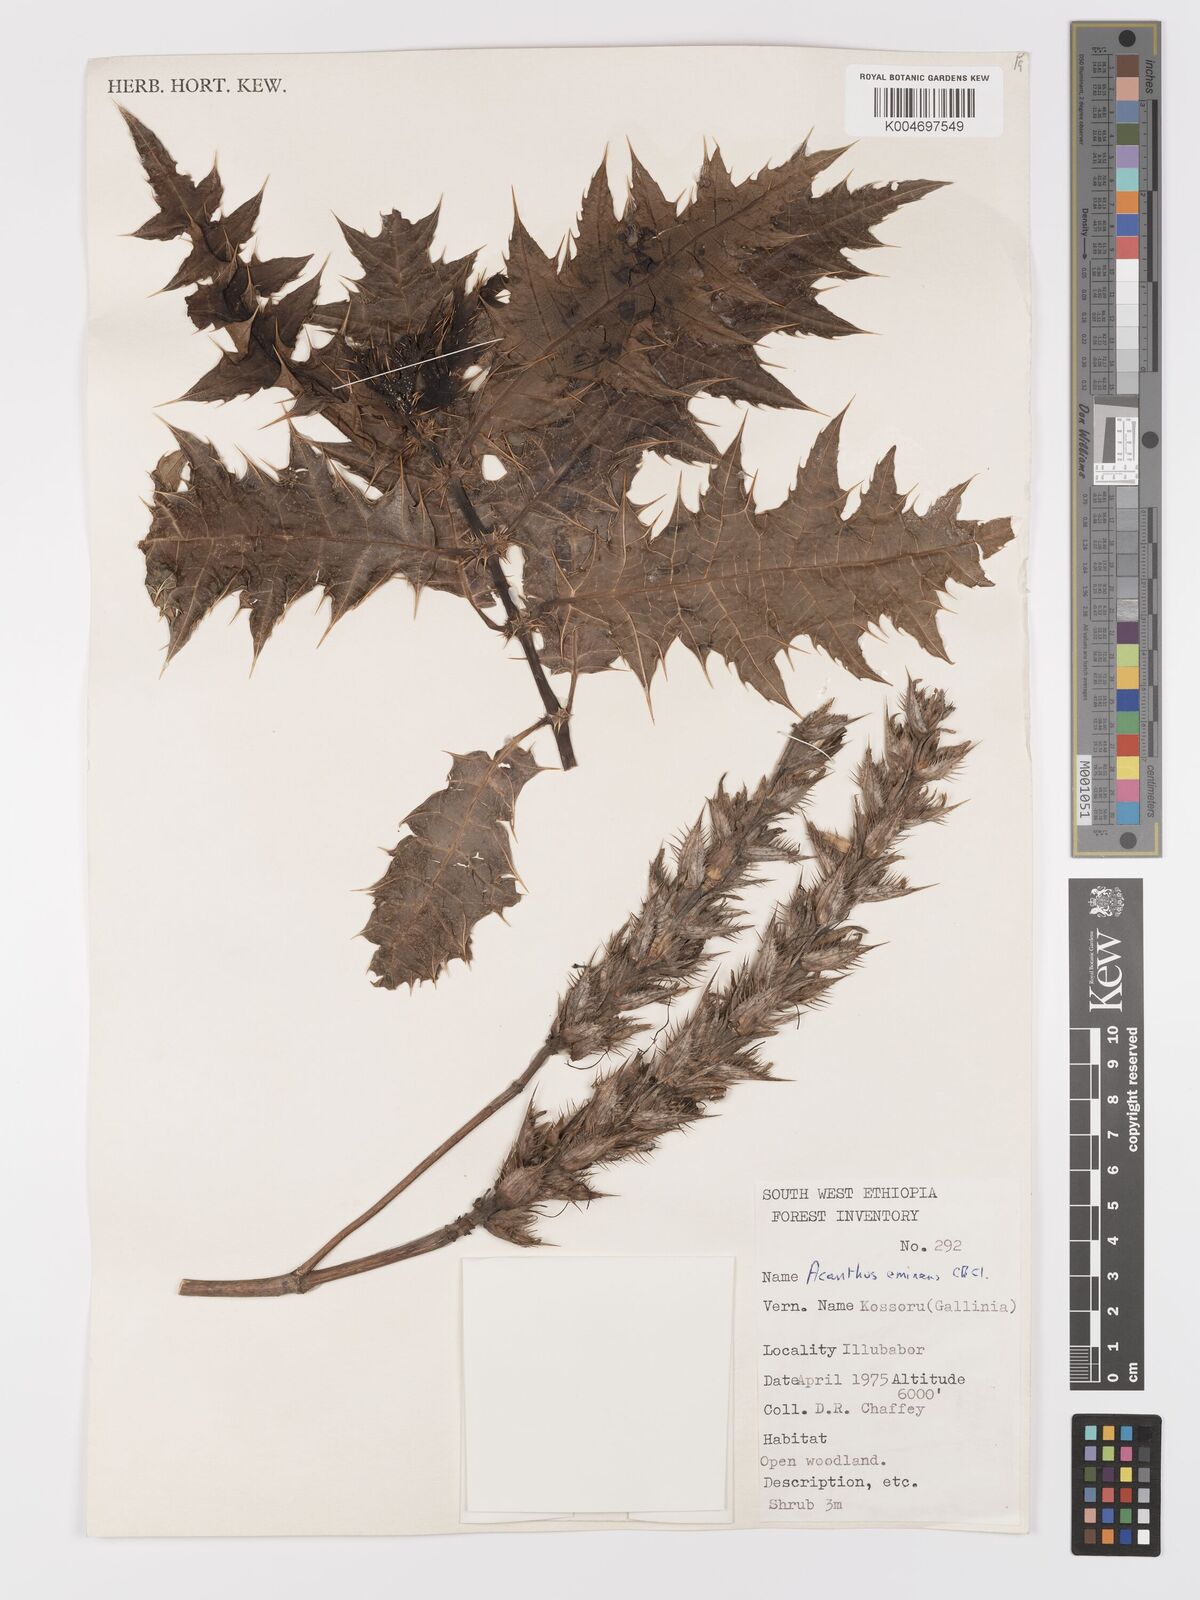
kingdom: Plantae
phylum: Tracheophyta
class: Magnoliopsida
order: Lamiales
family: Acanthaceae
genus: Acanthus
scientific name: Acanthus polystachyus
